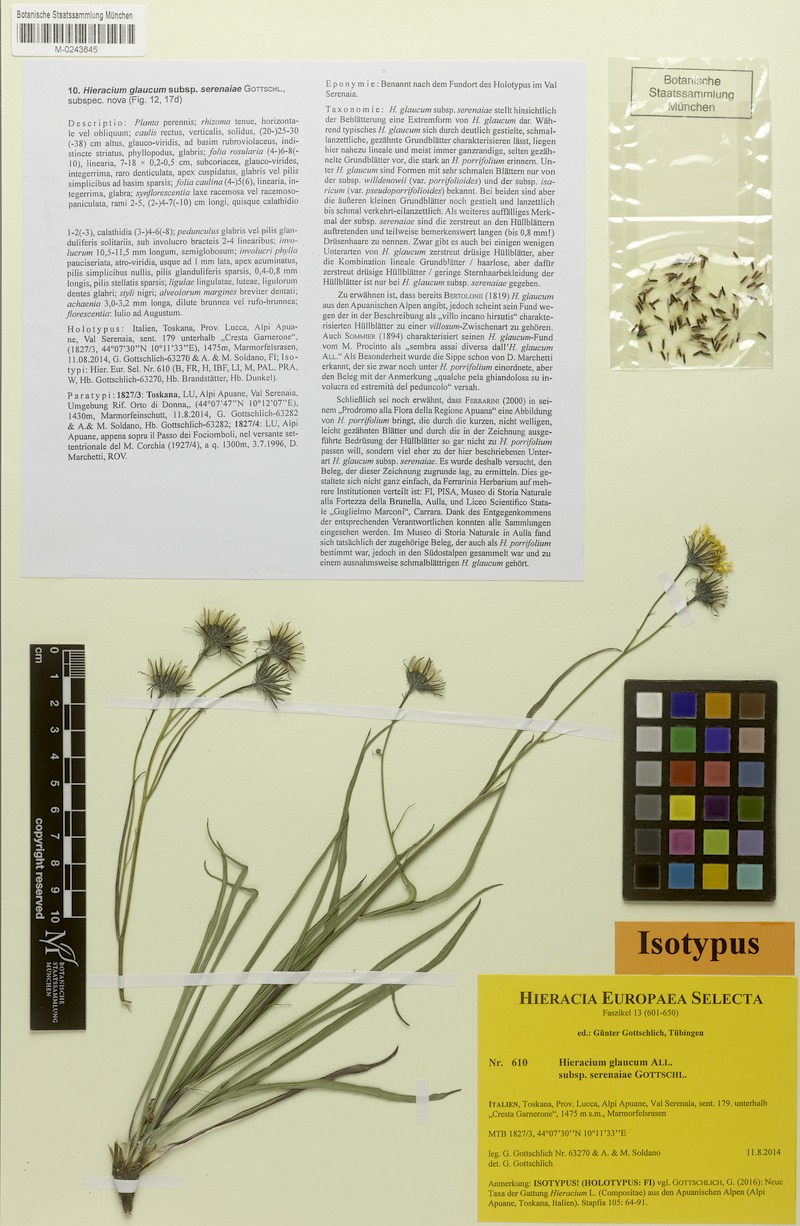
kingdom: Plantae
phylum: Tracheophyta
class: Magnoliopsida
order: Asterales
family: Asteraceae
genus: Hieracium
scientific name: Hieracium glaucum
